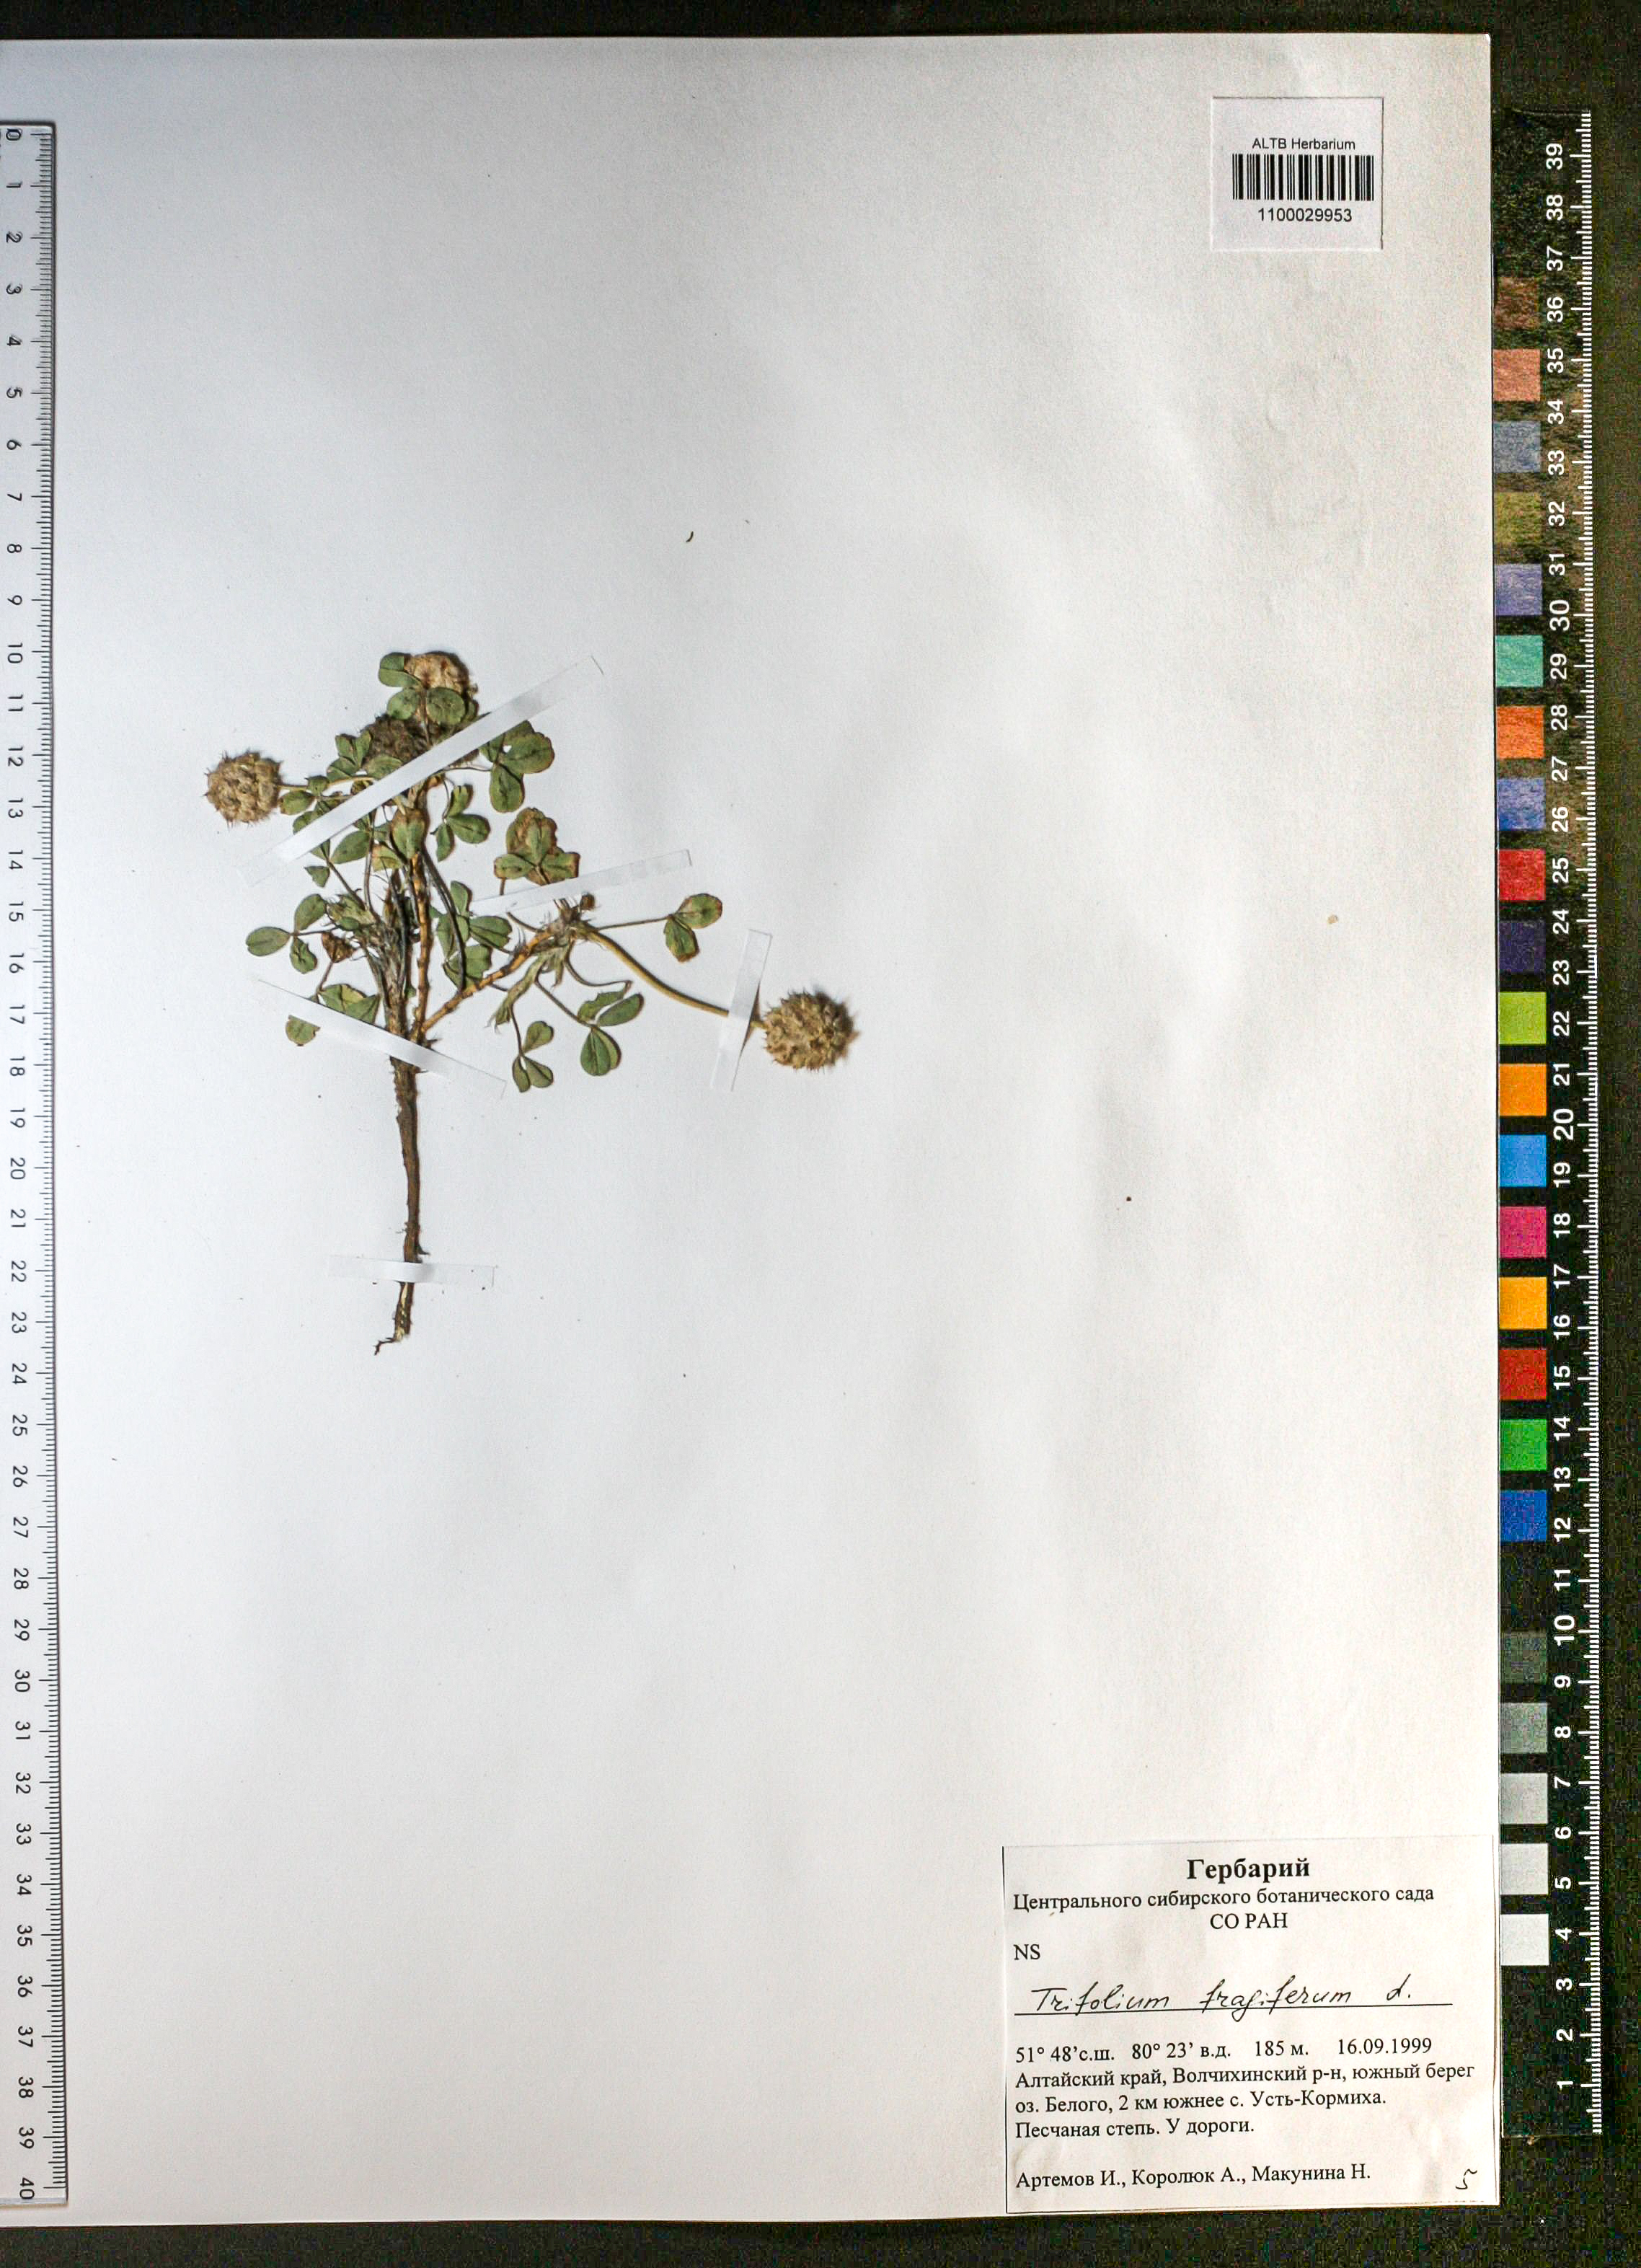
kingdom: Plantae
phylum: Tracheophyta
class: Magnoliopsida
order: Fabales
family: Fabaceae
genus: Trifolium
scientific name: Trifolium fragiferum
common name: Strawberry clover
